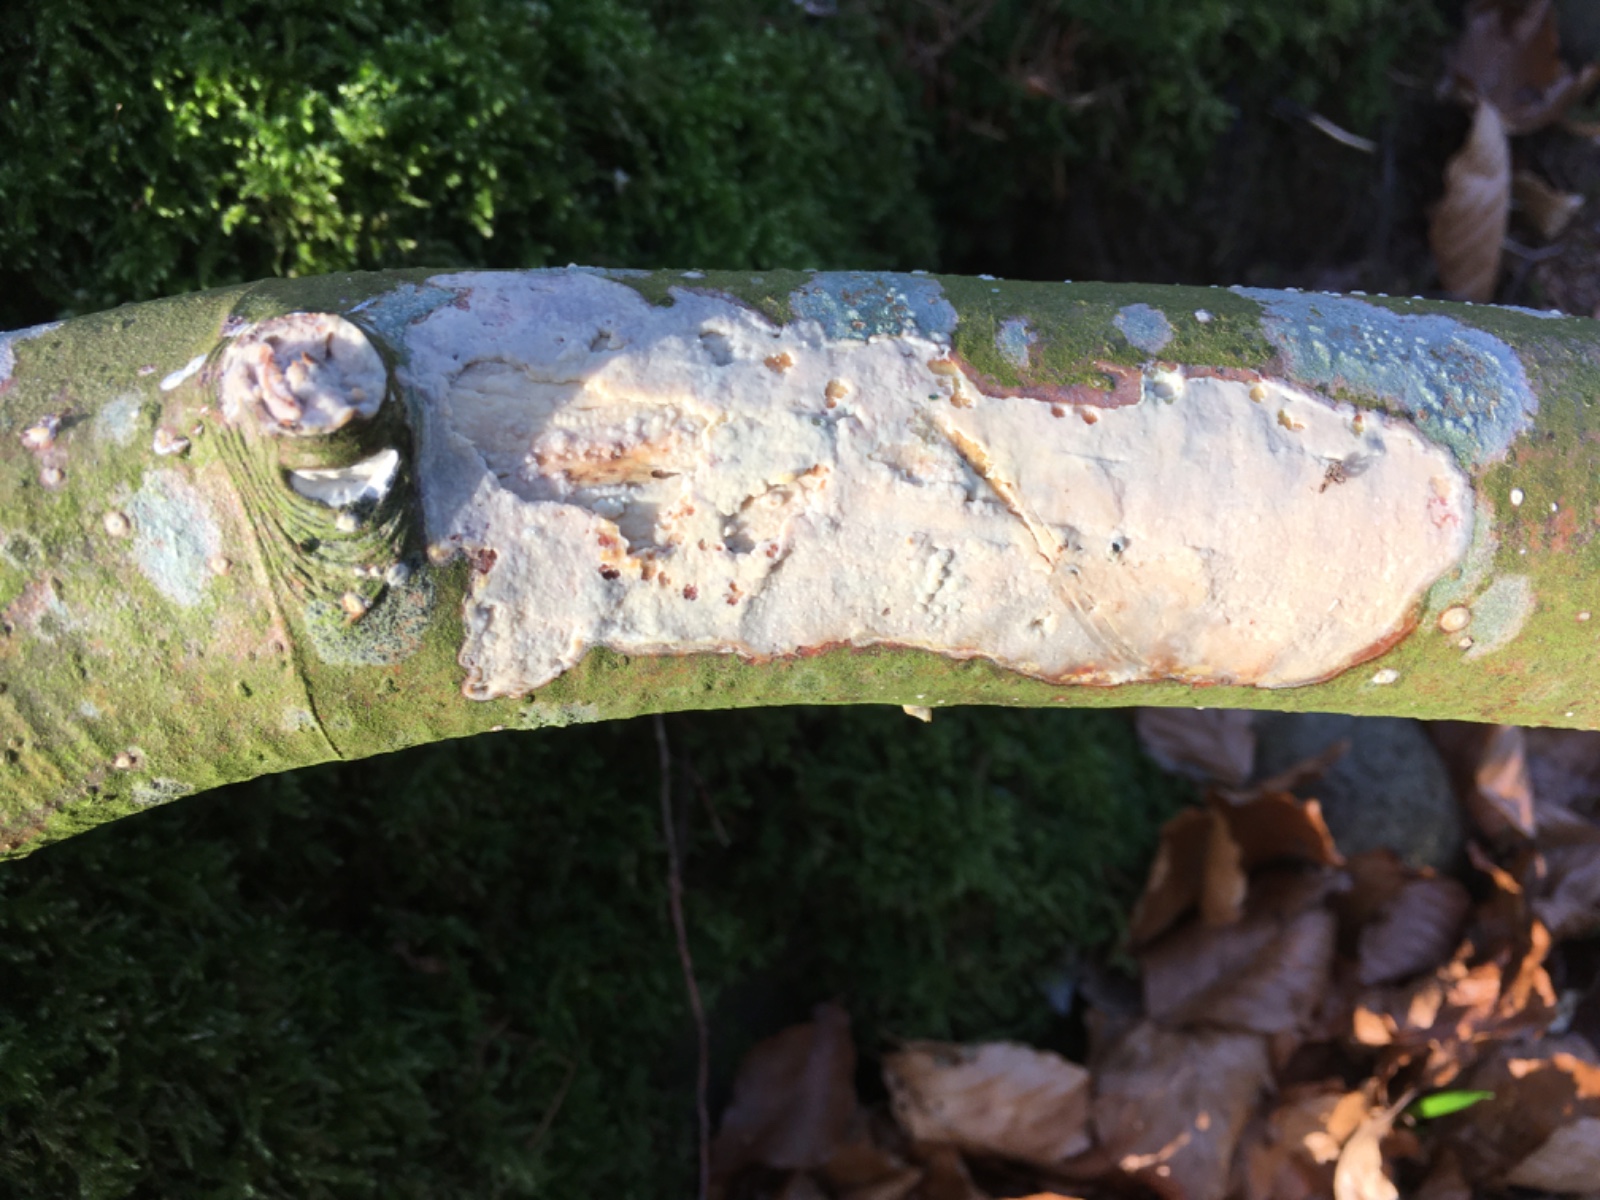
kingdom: Fungi
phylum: Basidiomycota
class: Agaricomycetes
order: Corticiales
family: Corticiaceae
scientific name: Corticiaceae
